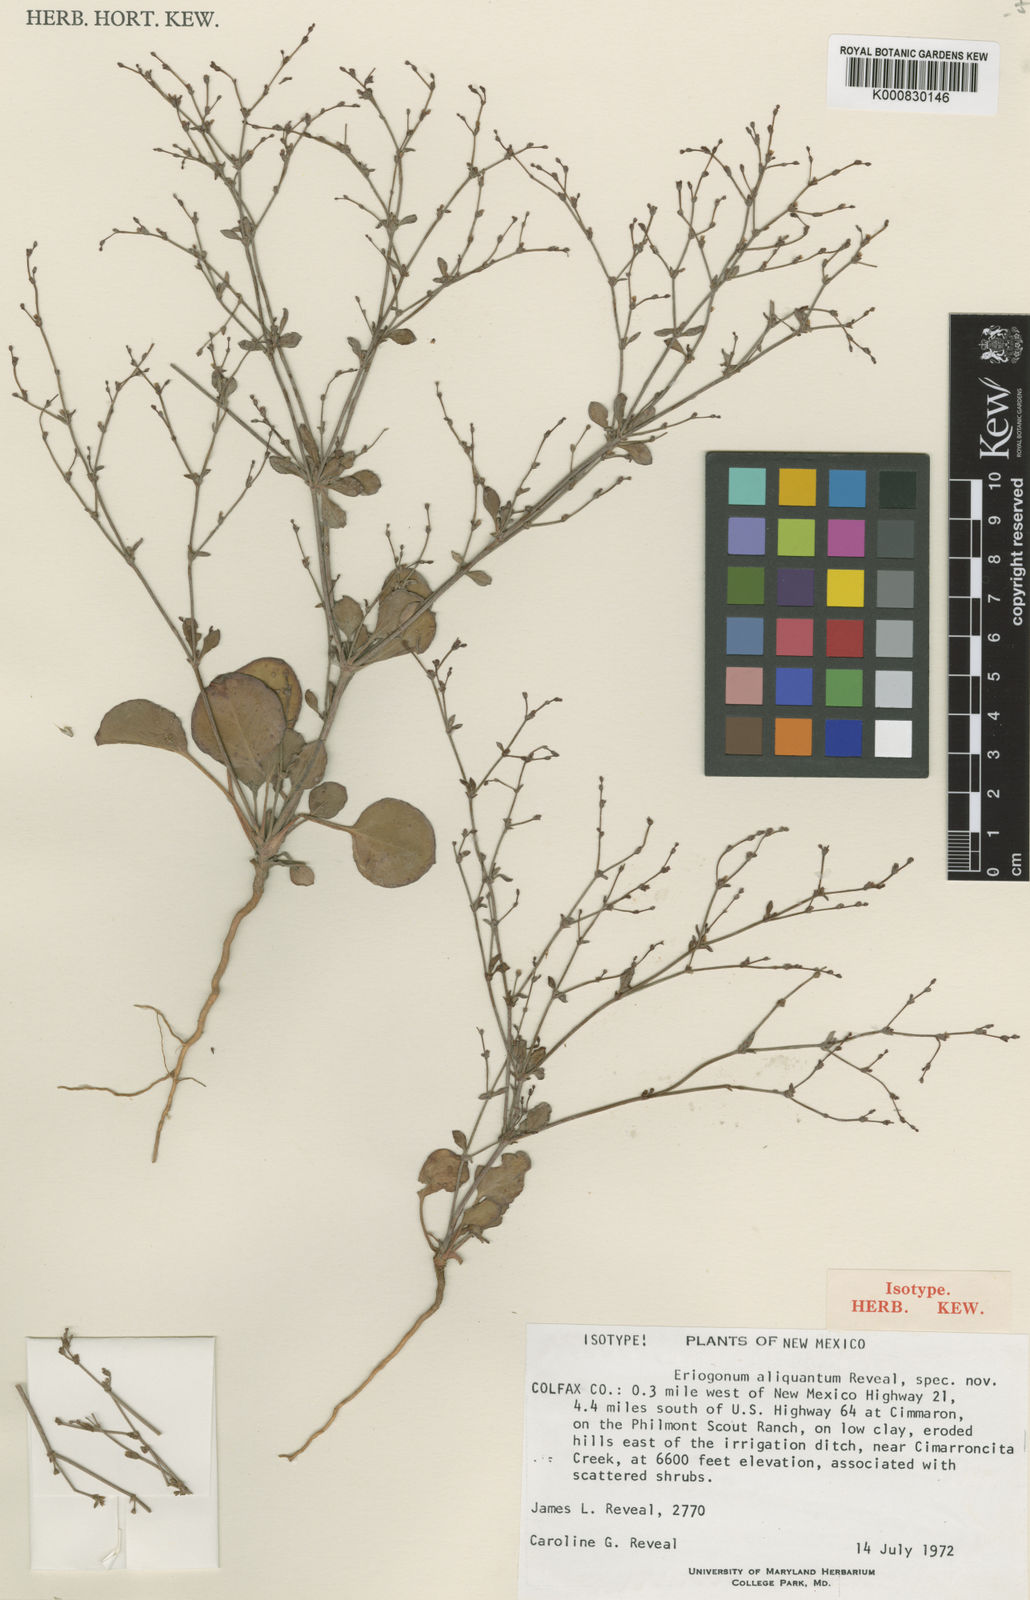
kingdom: Plantae
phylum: Tracheophyta
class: Magnoliopsida
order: Caryophyllales
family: Polygonaceae
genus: Eriogonum
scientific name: Eriogonum aliquantum
